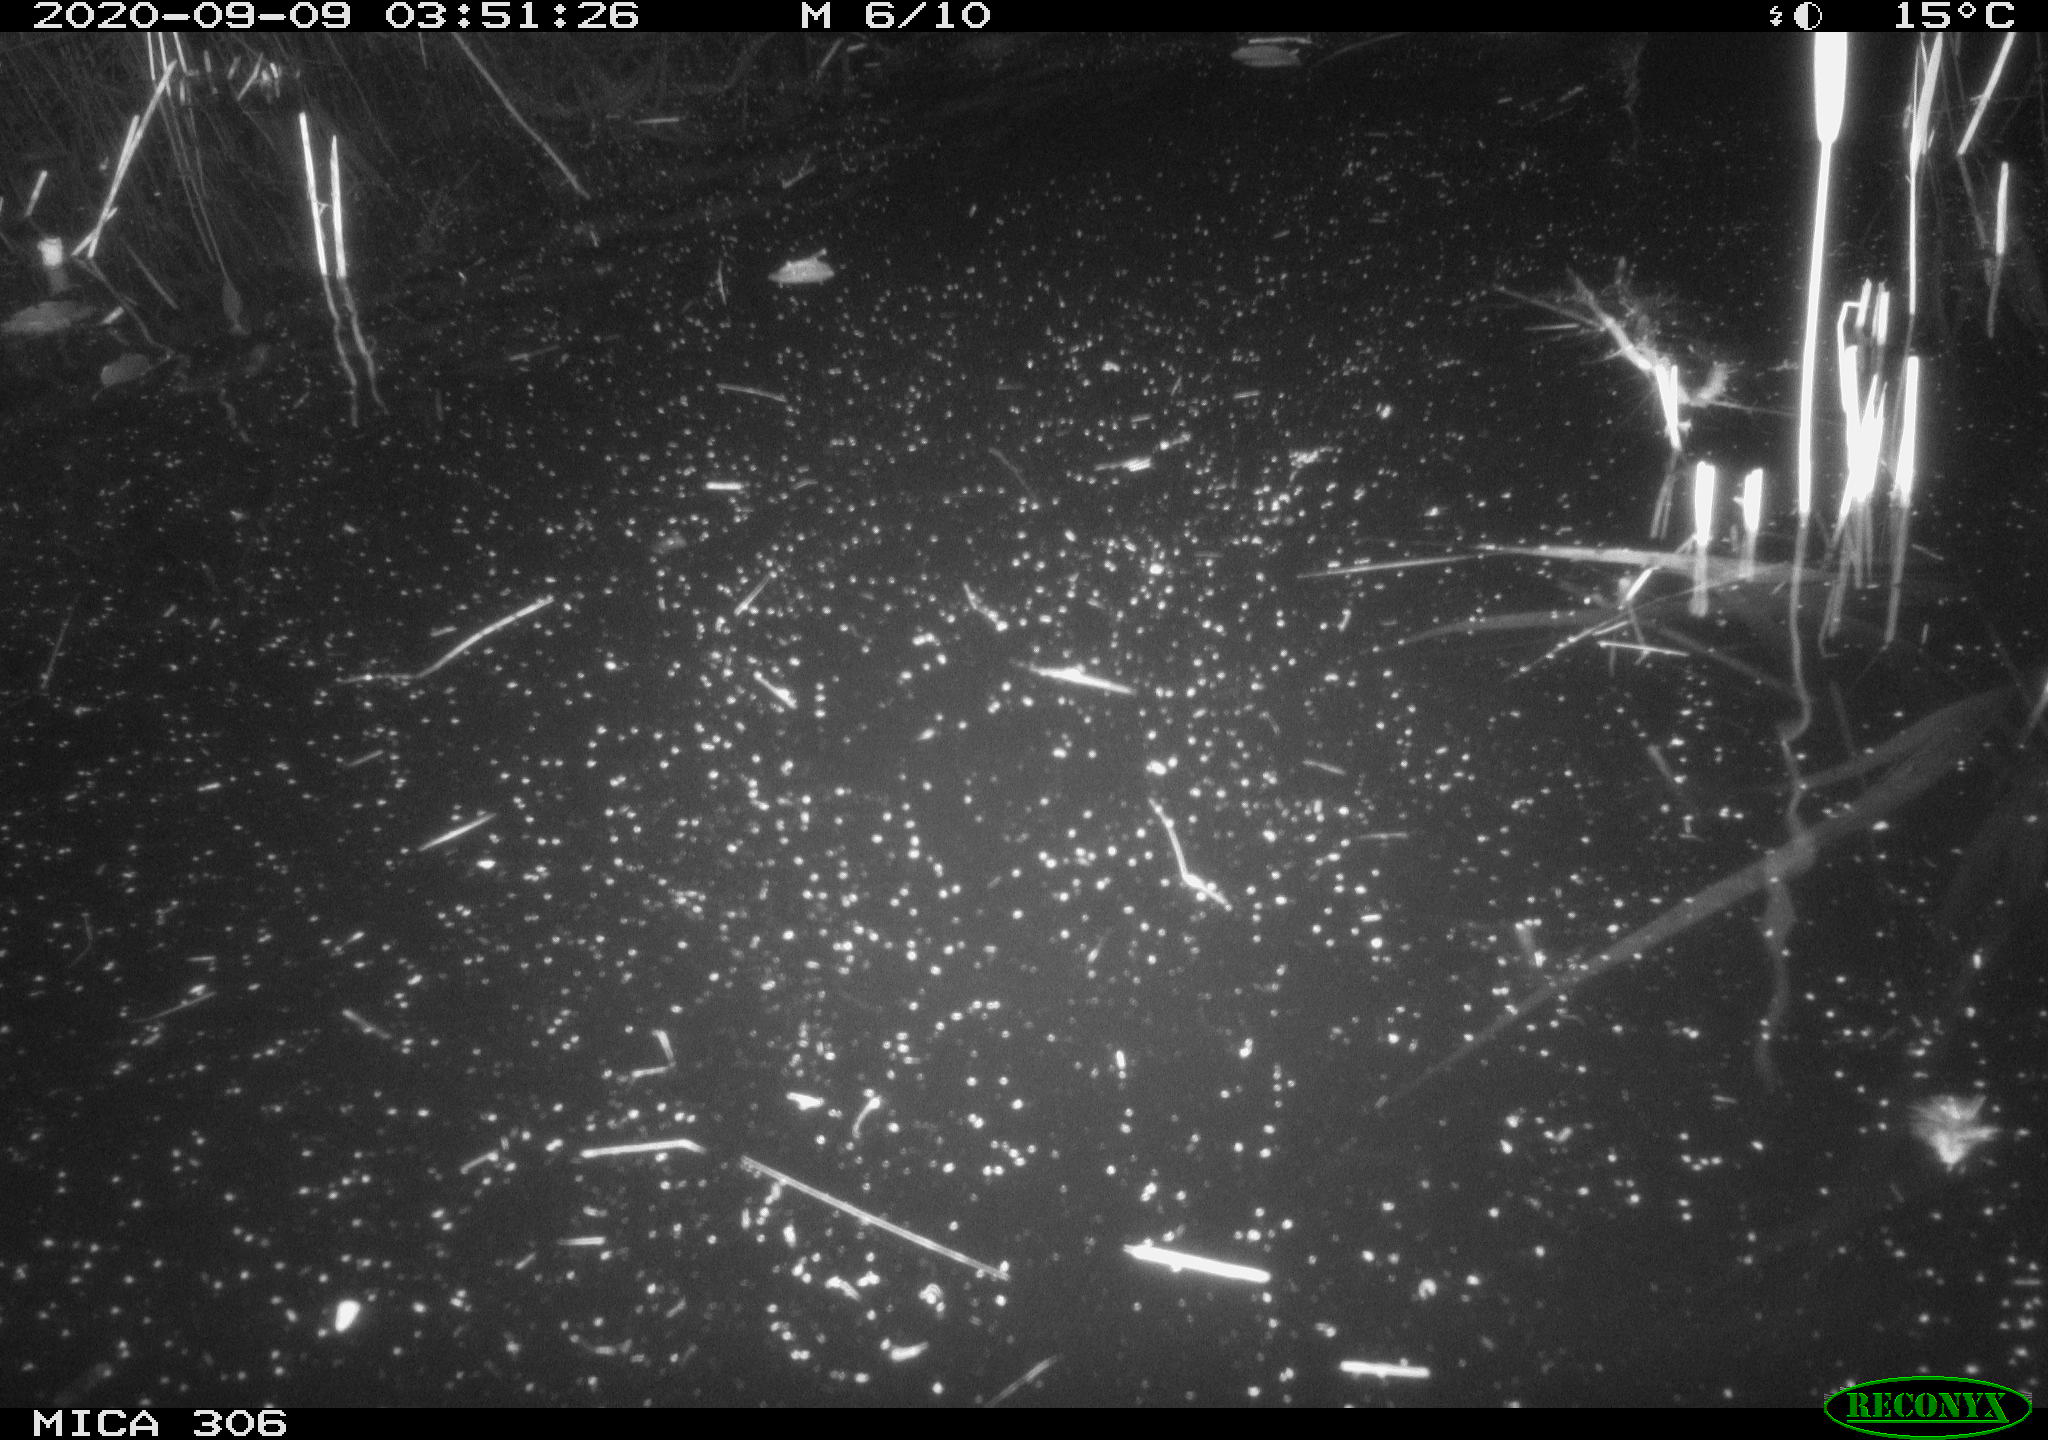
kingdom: Animalia
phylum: Chordata
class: Mammalia
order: Rodentia
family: Muridae
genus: Rattus
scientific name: Rattus norvegicus
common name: Brown rat
